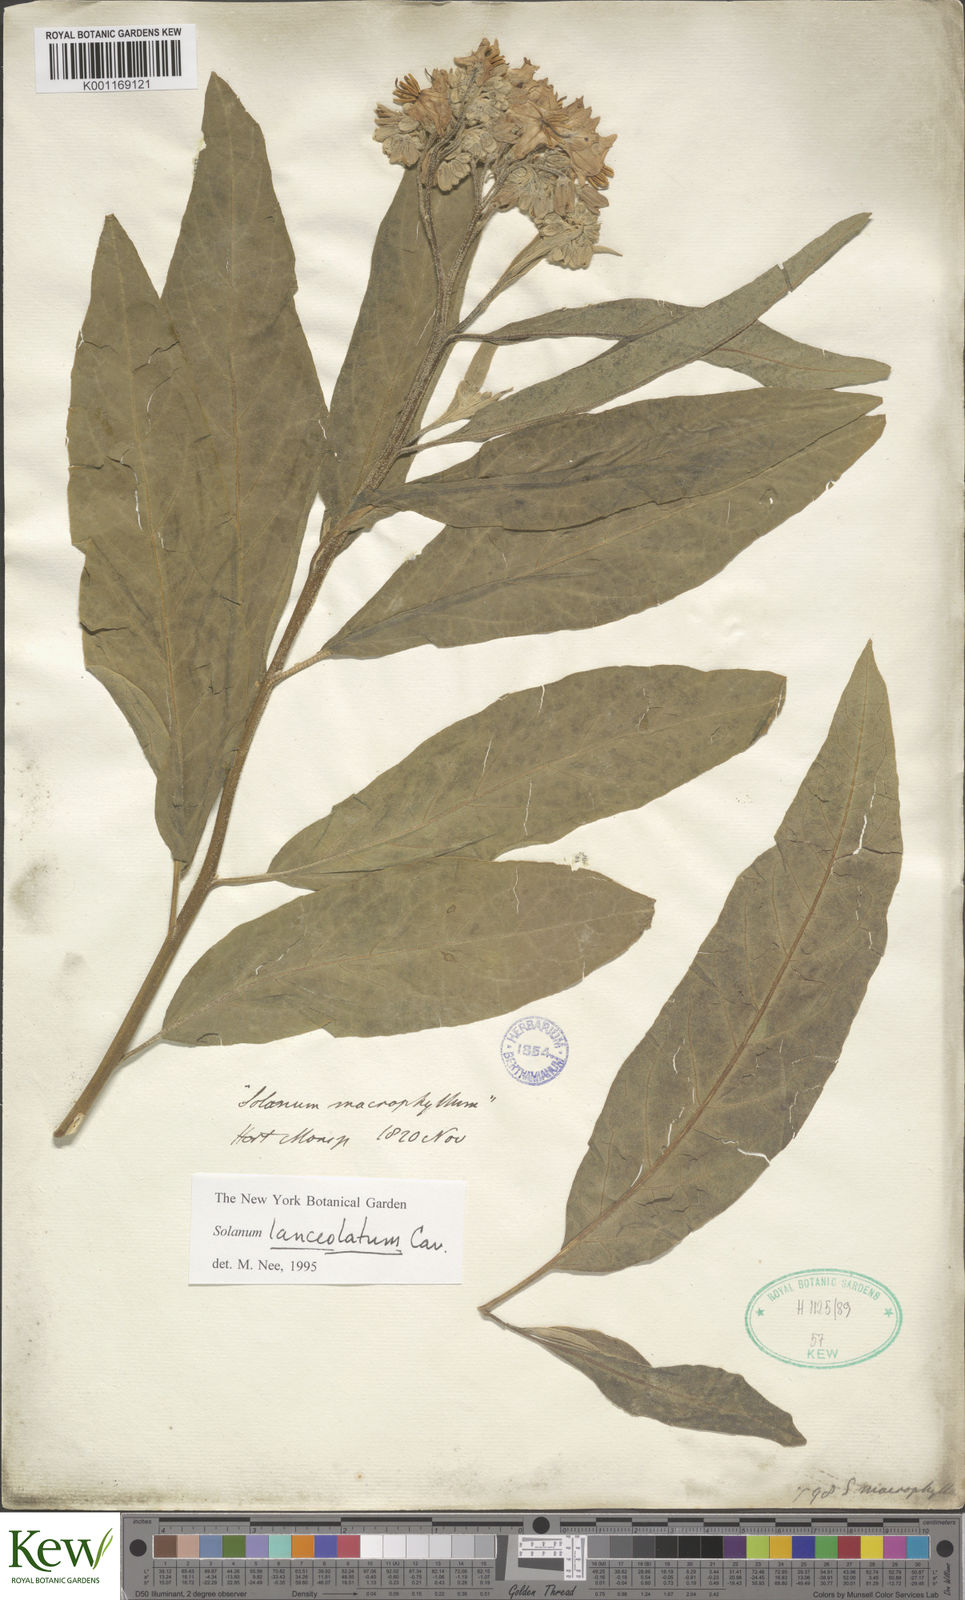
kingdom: Plantae
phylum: Tracheophyta
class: Magnoliopsida
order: Solanales
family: Solanaceae
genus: Solanum
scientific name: Solanum lanceolatum
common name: Orangeberry nightshade
